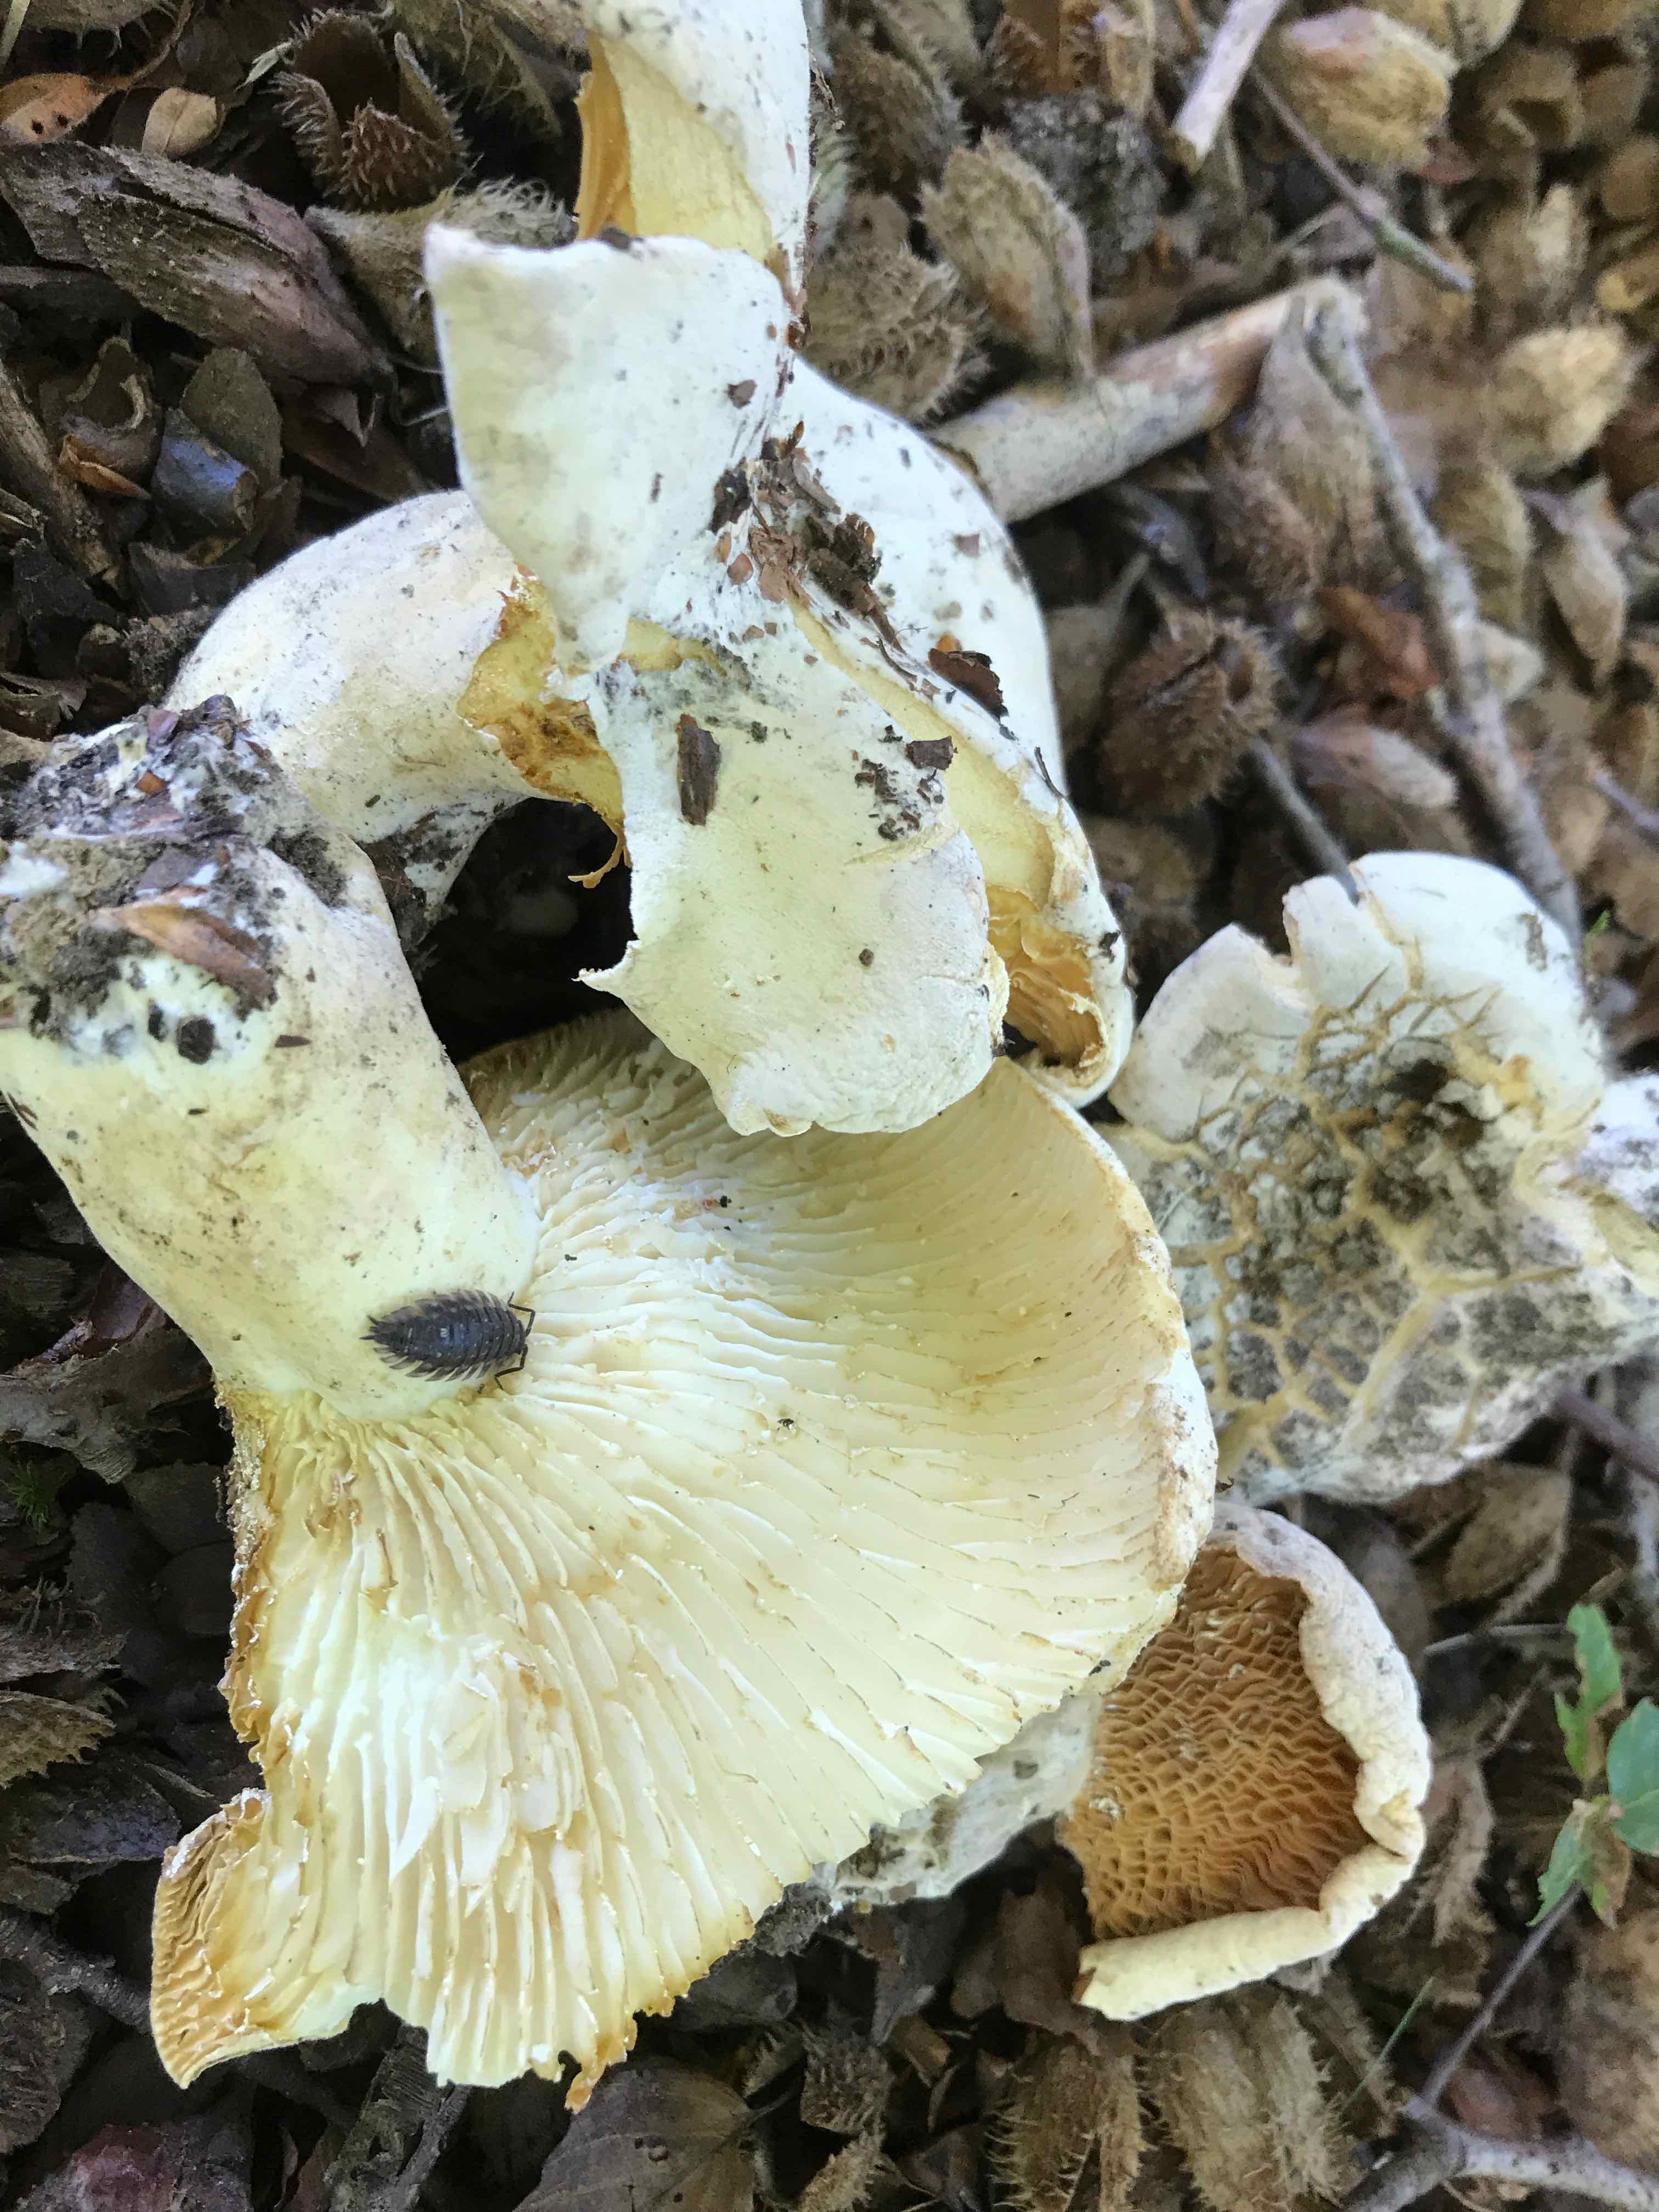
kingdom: Fungi
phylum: Basidiomycota
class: Agaricomycetes
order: Russulales
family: Russulaceae
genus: Lactifluus
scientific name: Lactifluus bertillonii
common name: blødfiltet mælkehat
